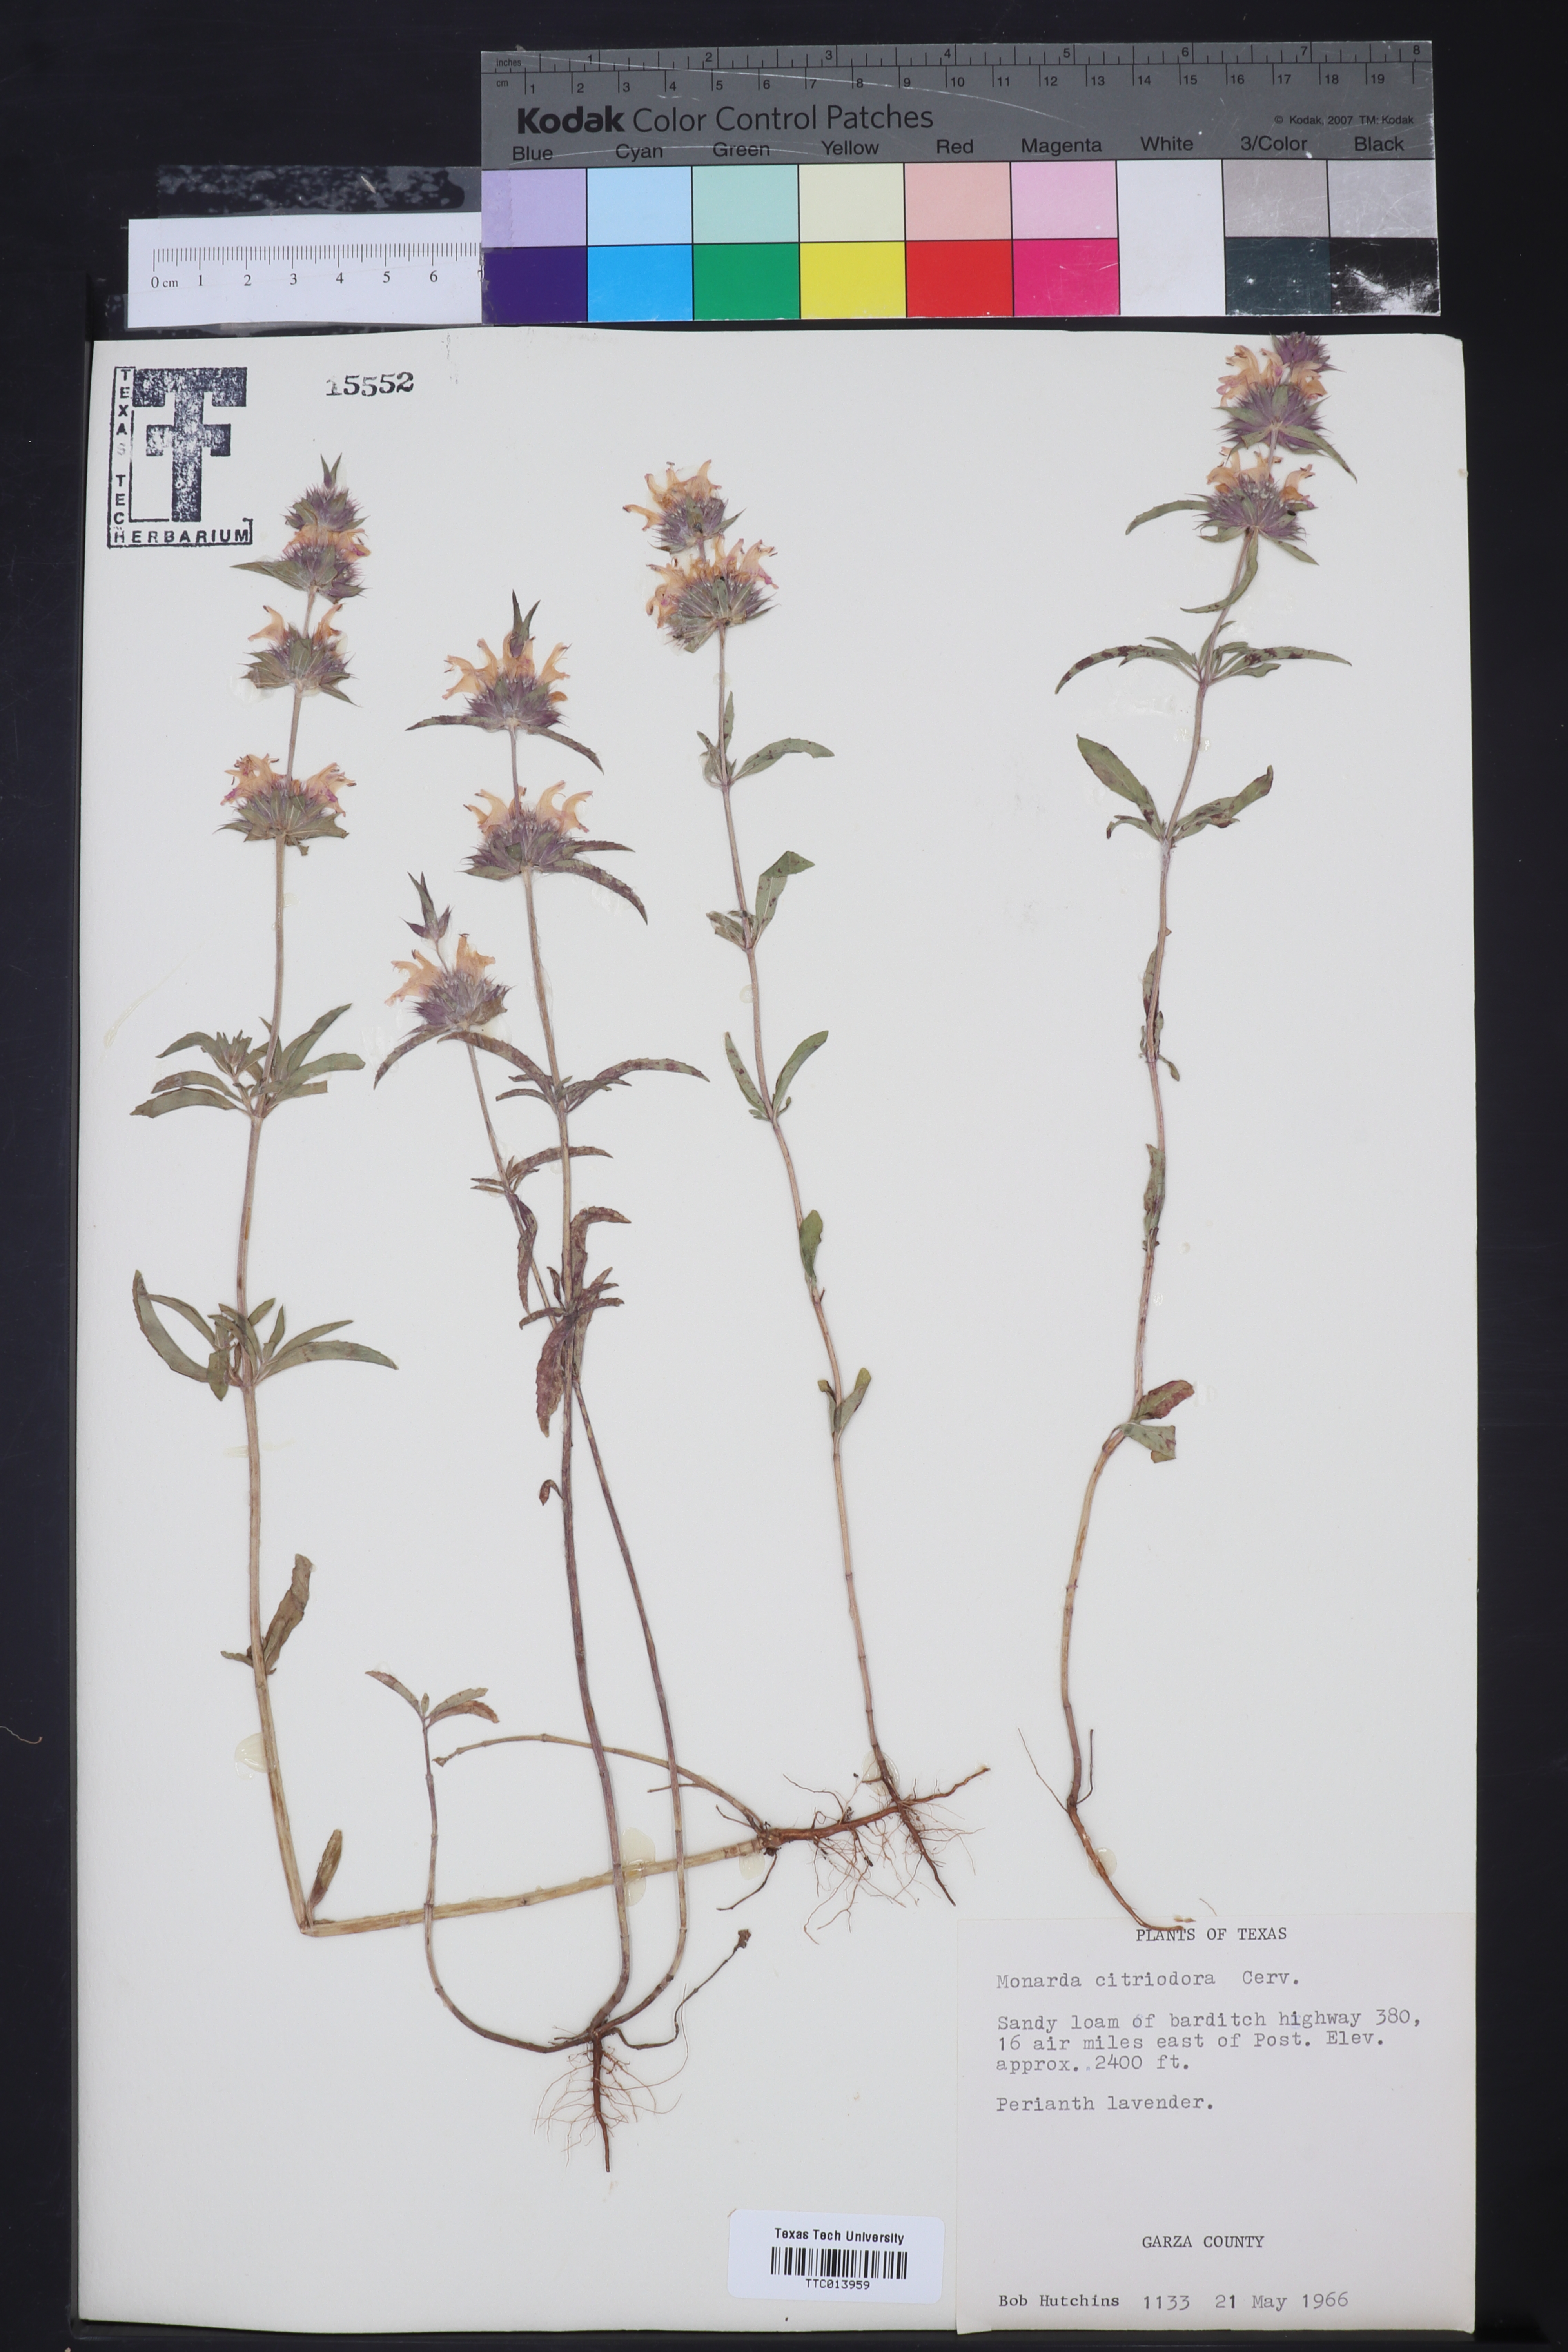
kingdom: Plantae
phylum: Tracheophyta
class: Magnoliopsida
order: Lamiales
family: Lamiaceae
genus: Monarda
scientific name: Monarda citriodora
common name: Lemon beebalm
